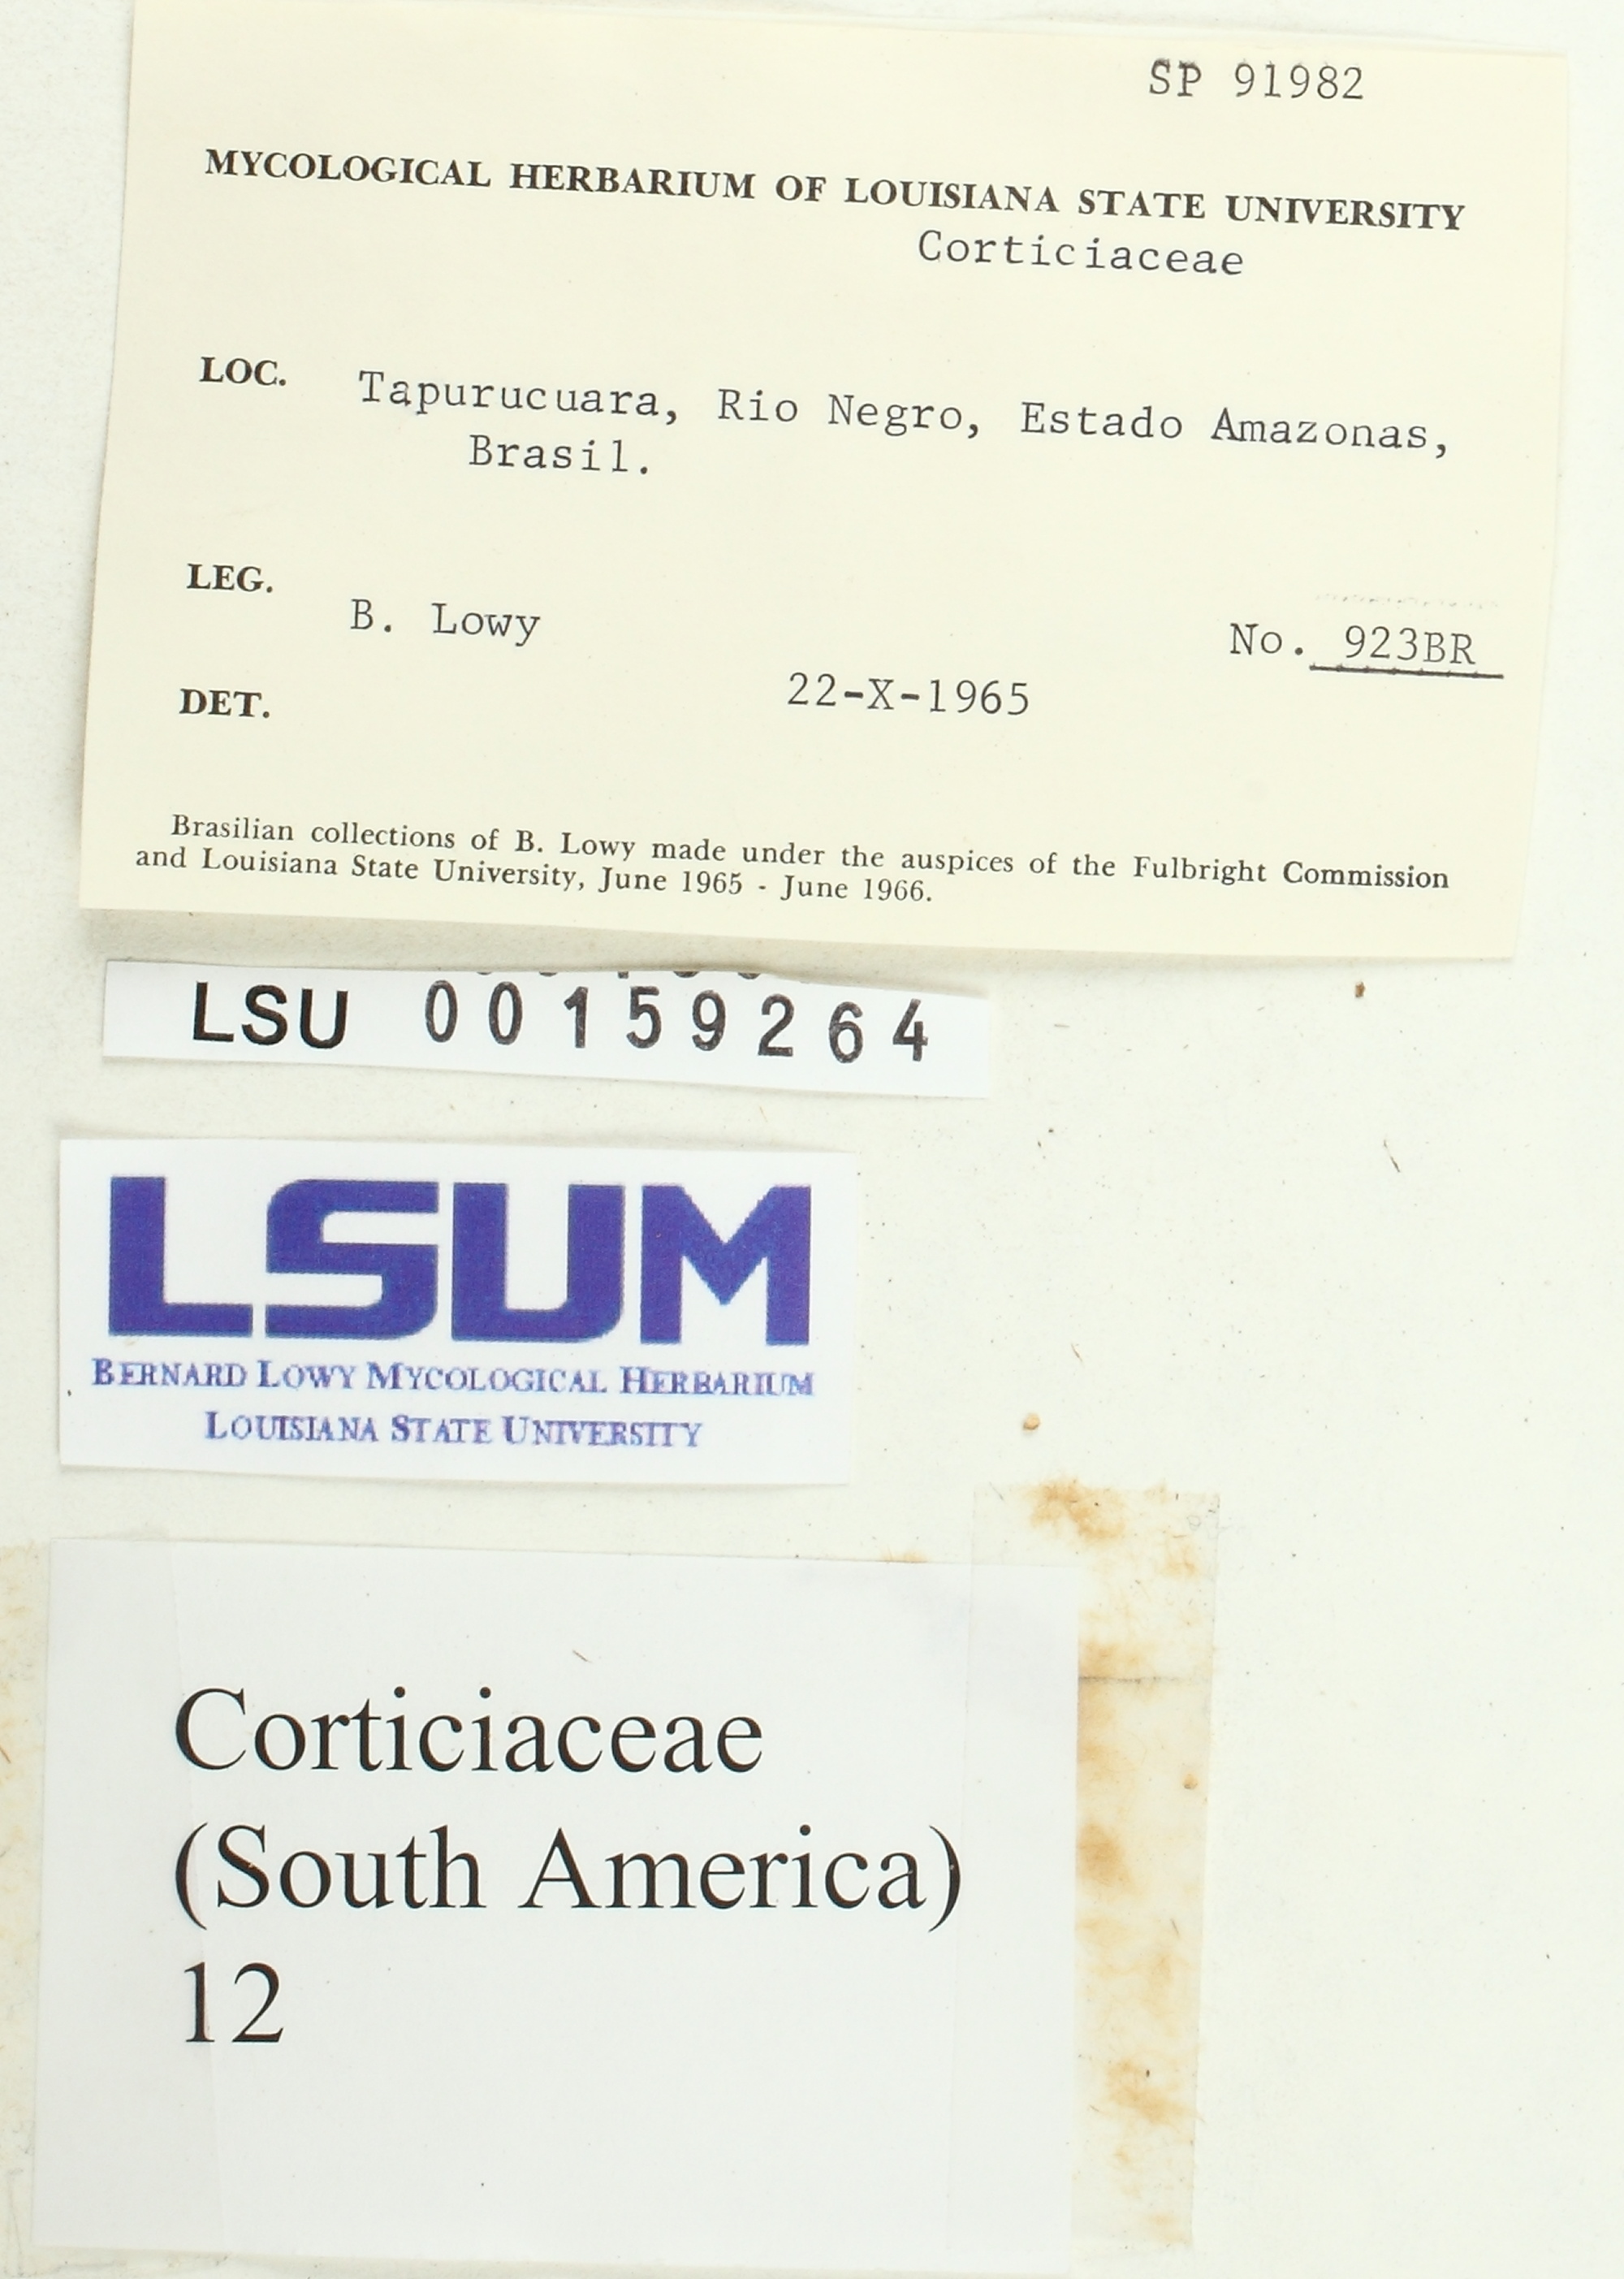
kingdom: Fungi
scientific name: Fungi
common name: Fungi
